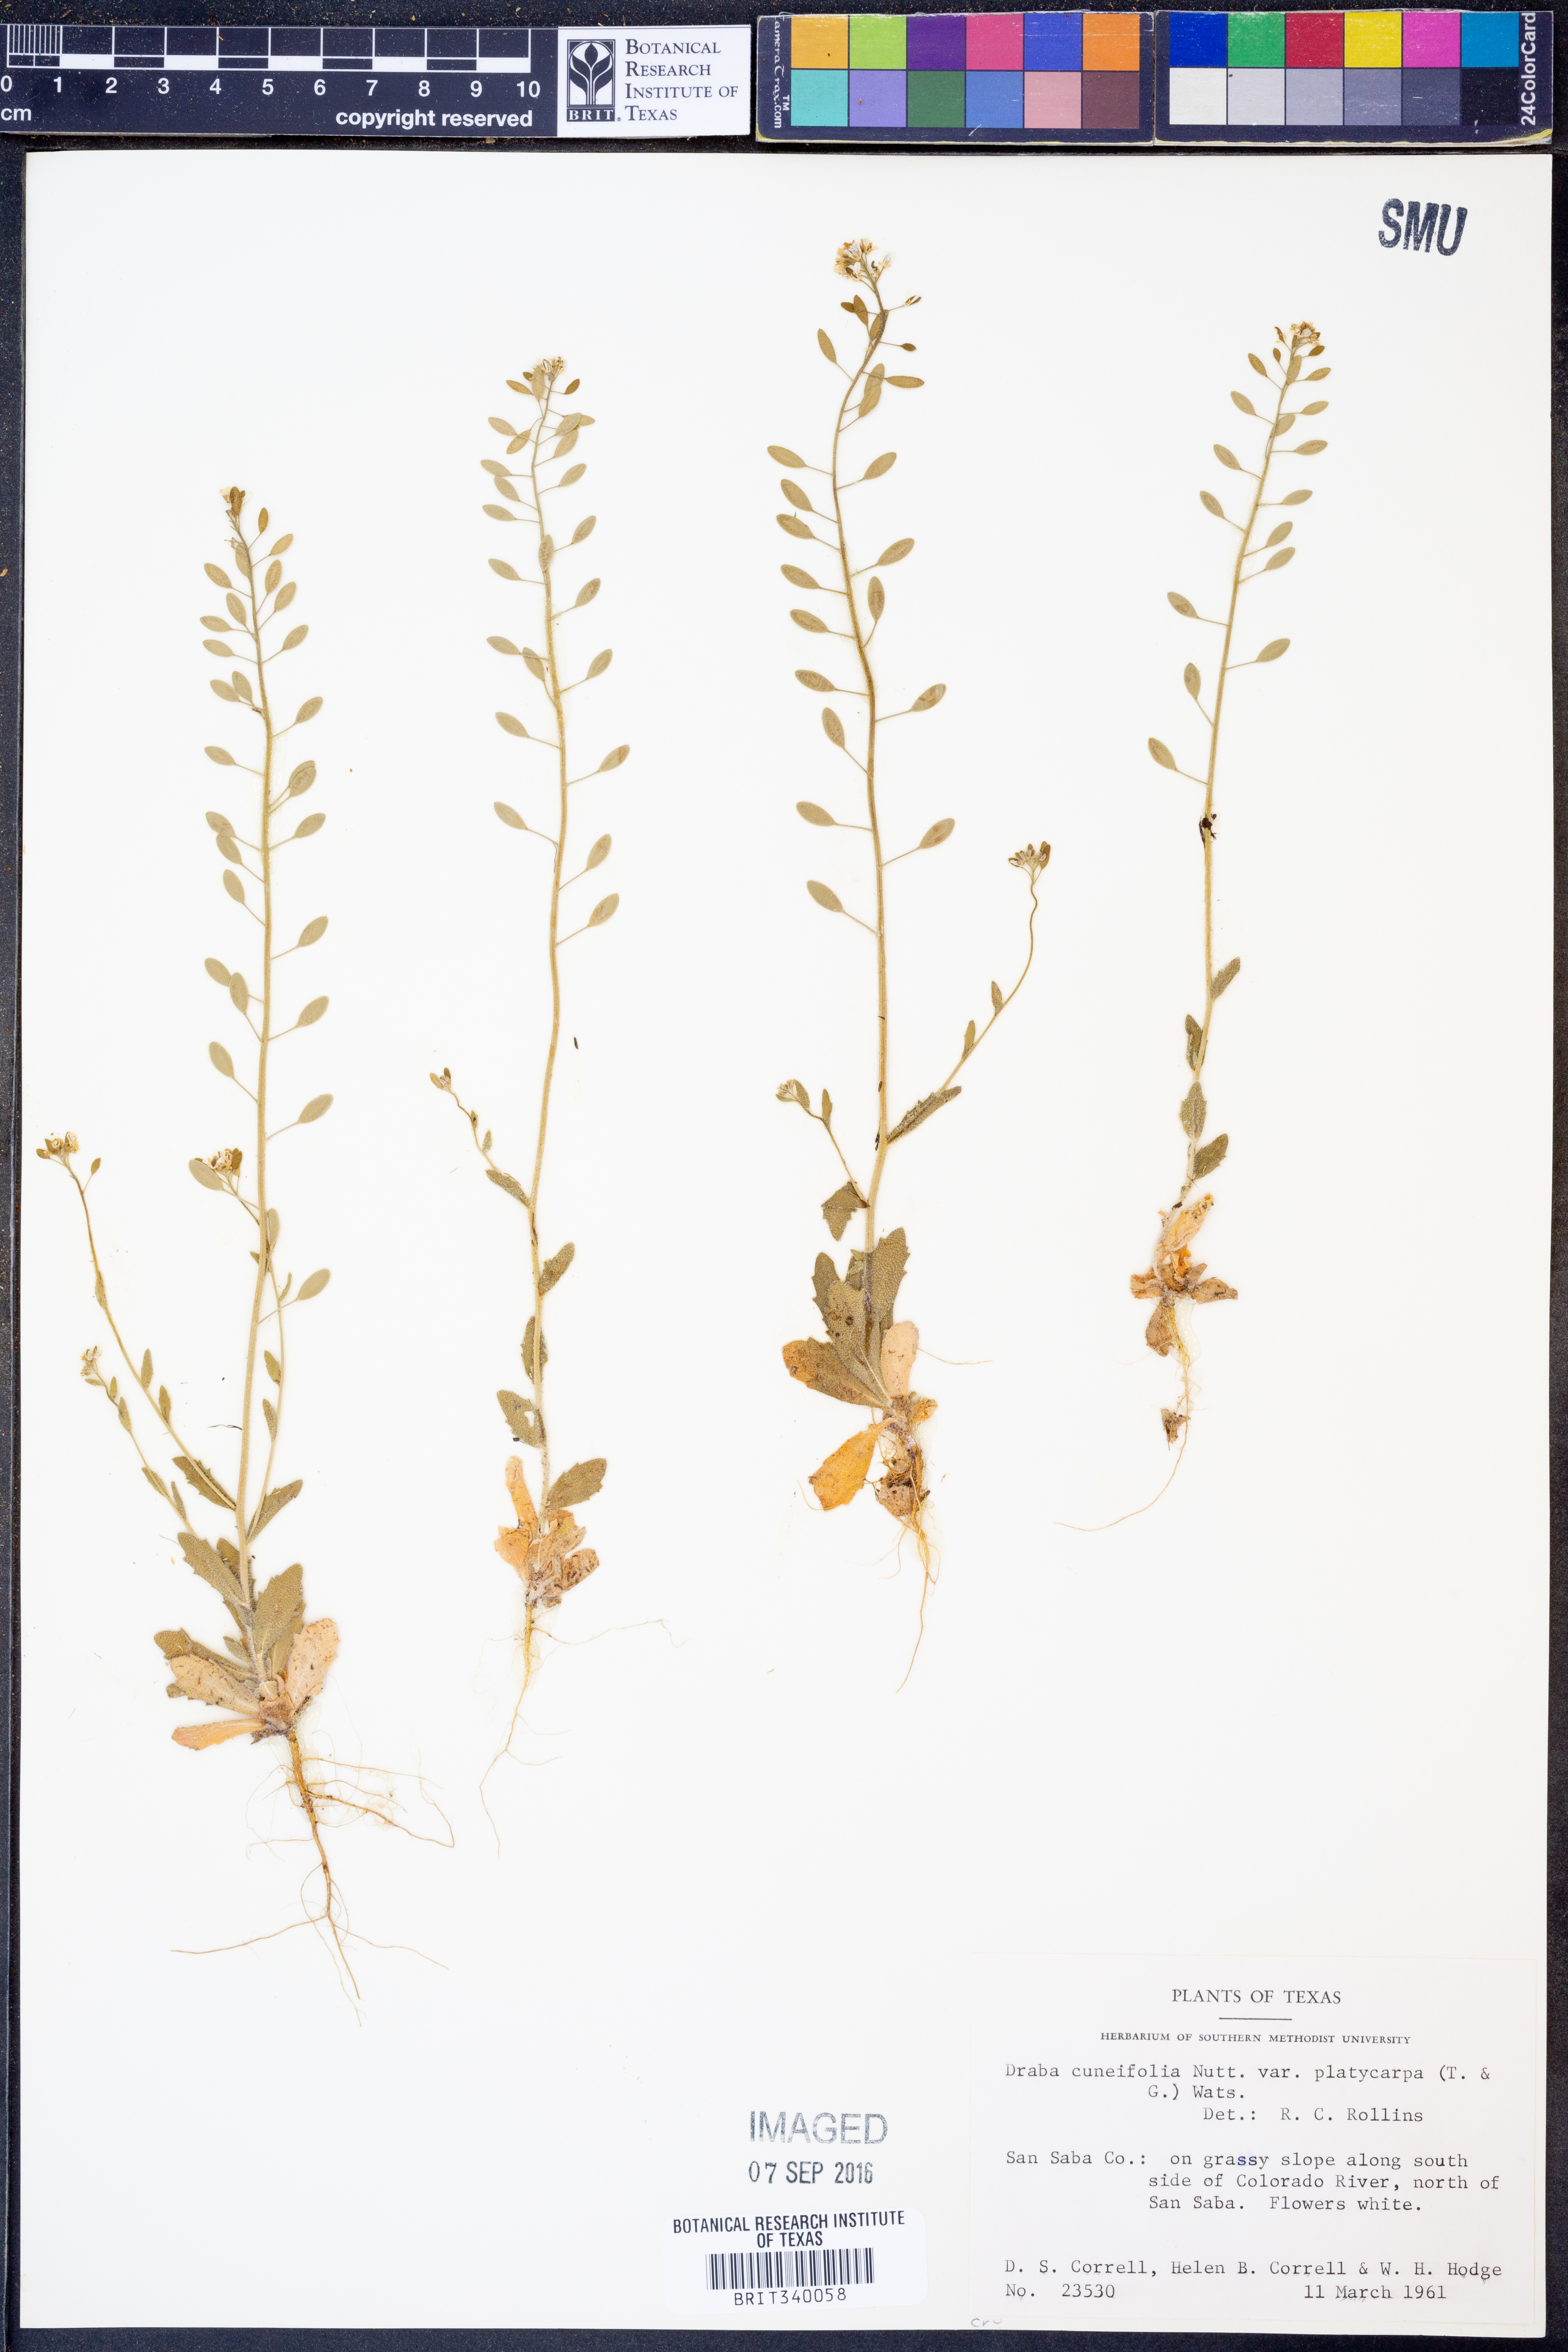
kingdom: Plantae
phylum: Tracheophyta
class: Magnoliopsida
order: Brassicales
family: Brassicaceae
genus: Tomostima
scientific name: Tomostima platycarpa
